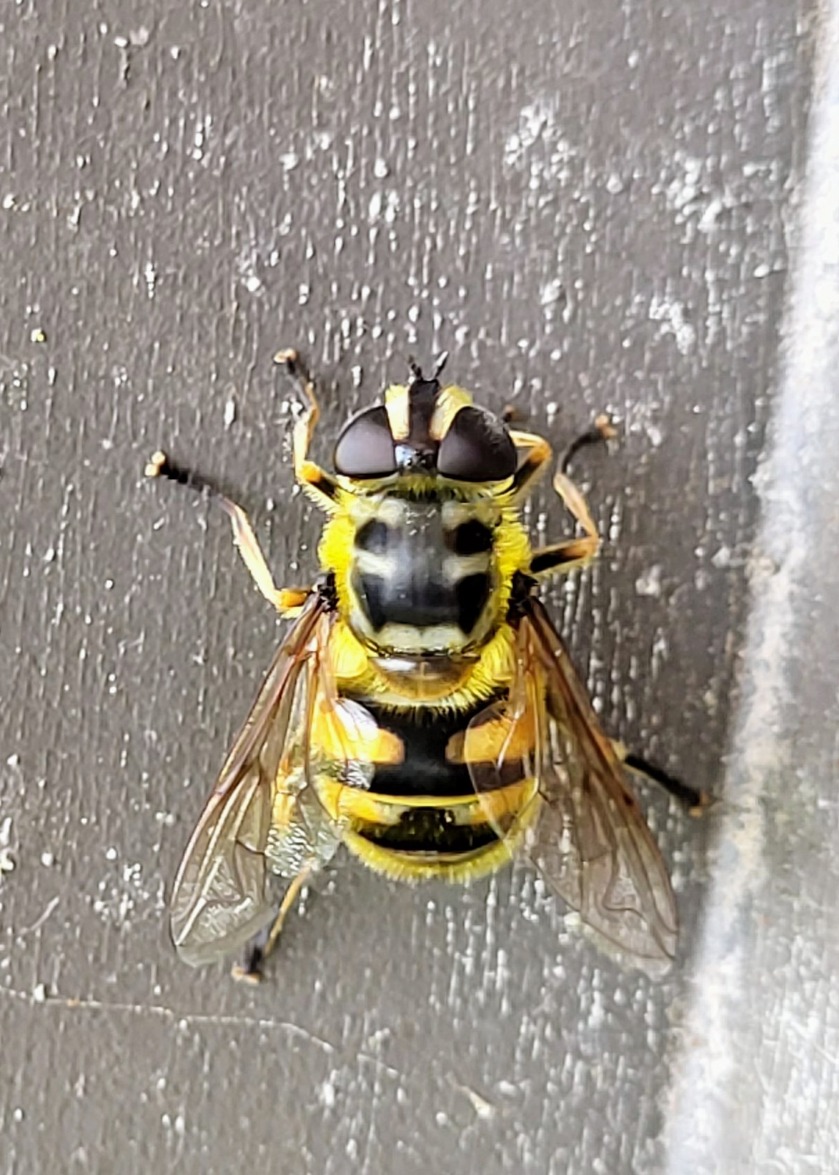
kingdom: Animalia
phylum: Arthropoda
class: Insecta
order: Diptera
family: Syrphidae
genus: Myathropa
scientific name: Myathropa florea
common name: Dødningehoved-svirreflue
